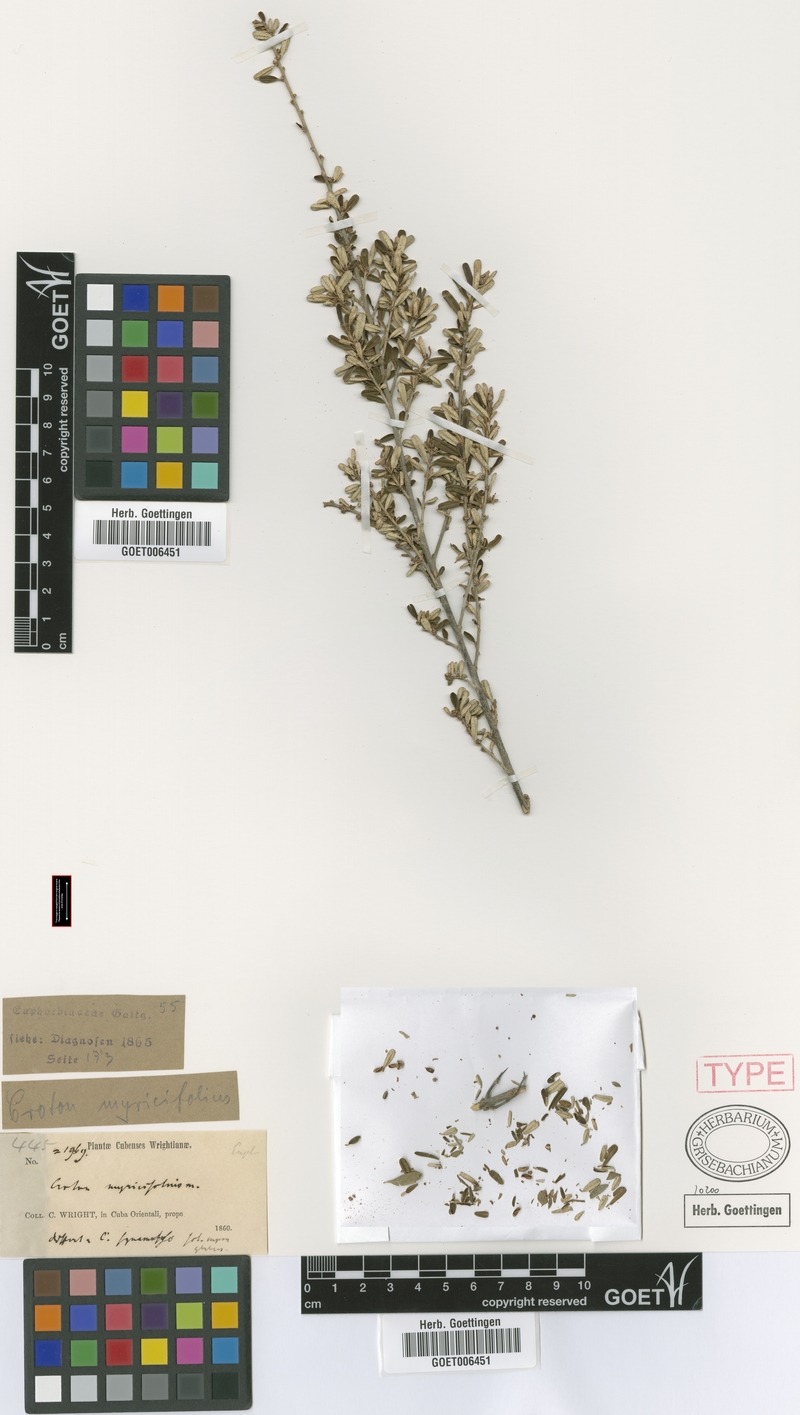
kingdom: Plantae
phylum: Tracheophyta
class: Magnoliopsida
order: Malpighiales
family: Euphorbiaceae
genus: Croton
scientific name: Croton myricifolius
